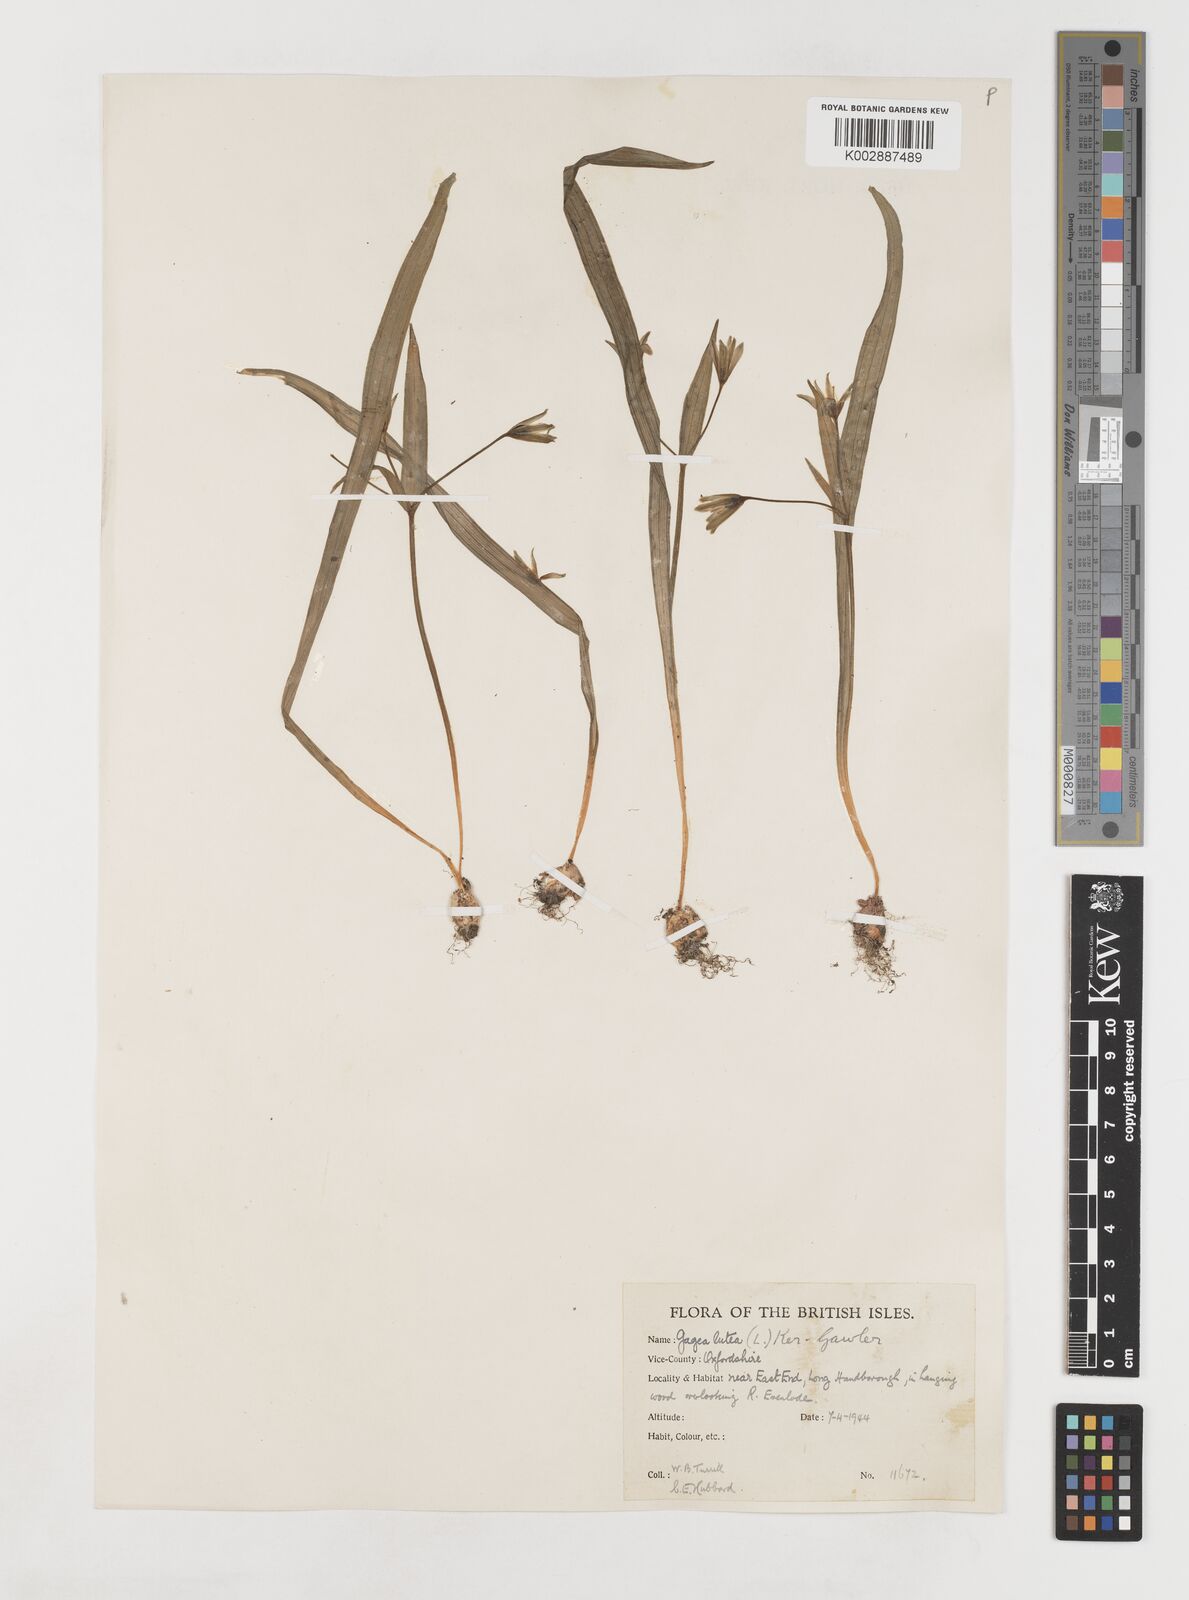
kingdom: Plantae
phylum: Tracheophyta
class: Liliopsida
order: Liliales
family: Liliaceae
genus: Gagea
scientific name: Gagea lutea
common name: Yellow star-of-bethlehem
